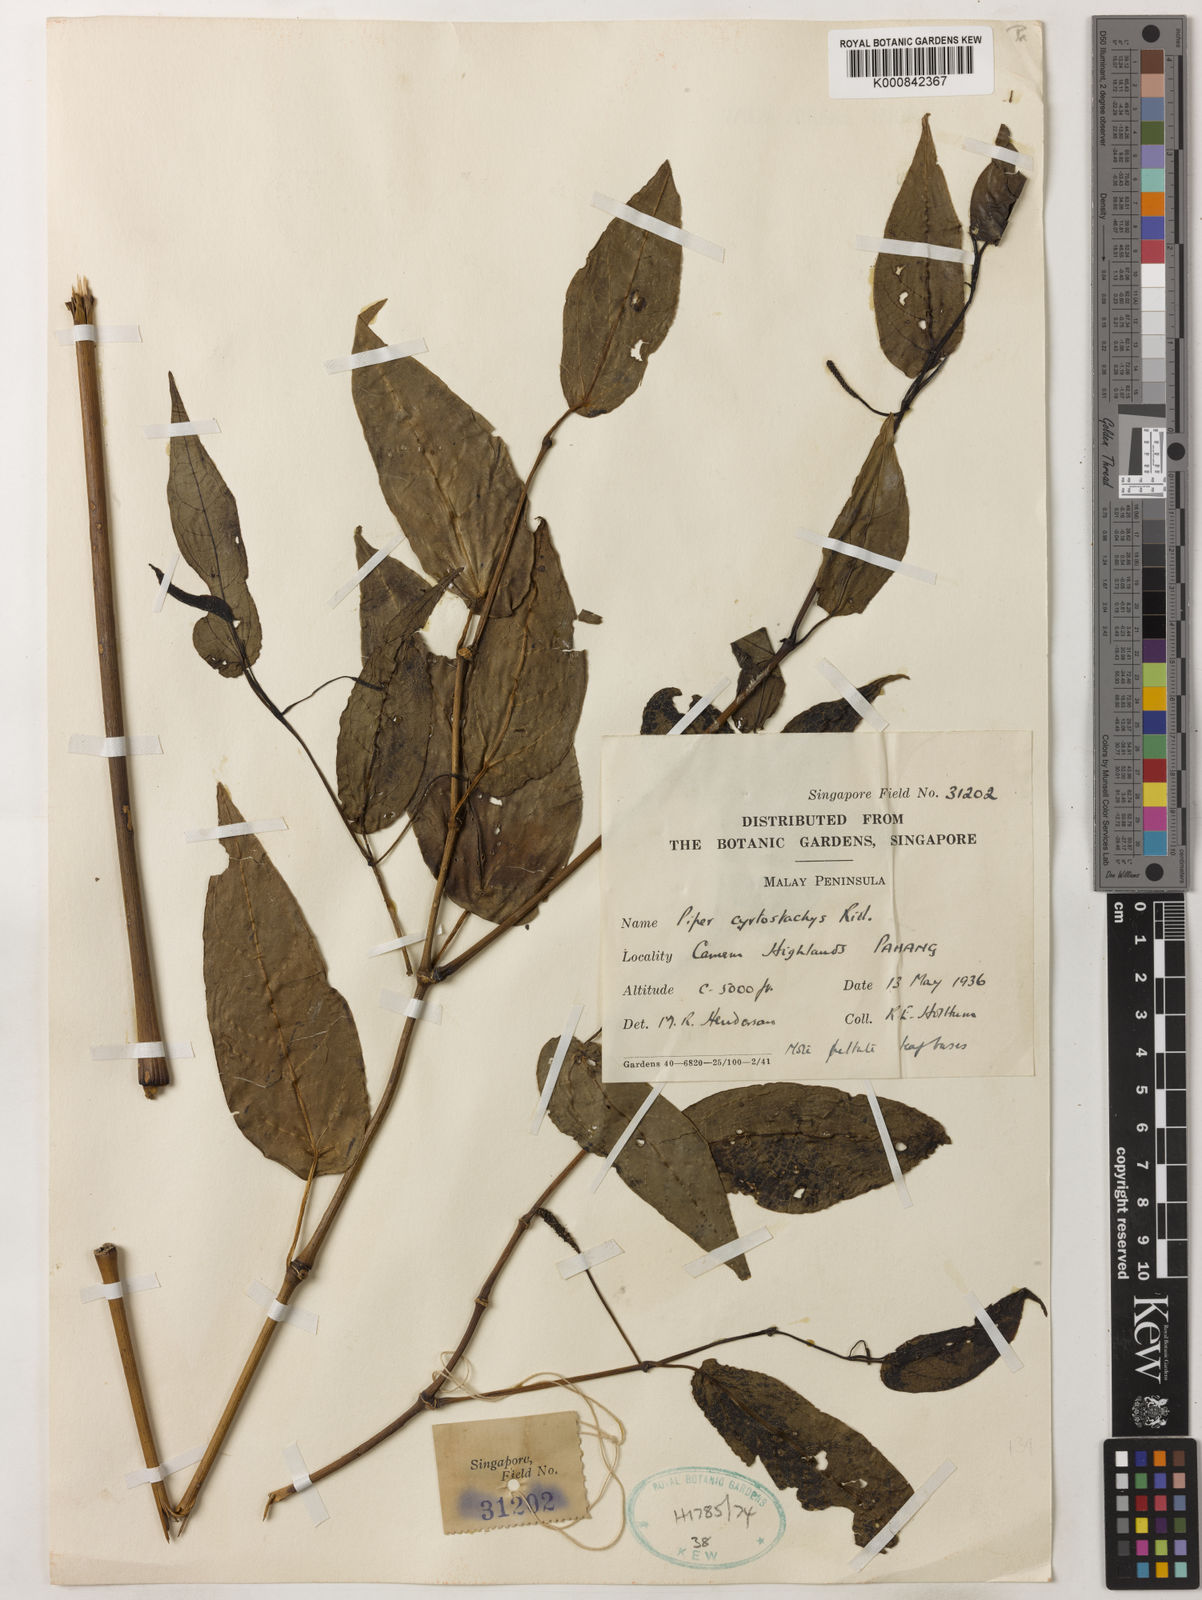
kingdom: Plantae
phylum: Tracheophyta
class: Magnoliopsida
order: Piperales
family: Piperaceae
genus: Piper
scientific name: Piper cyrtostachys
